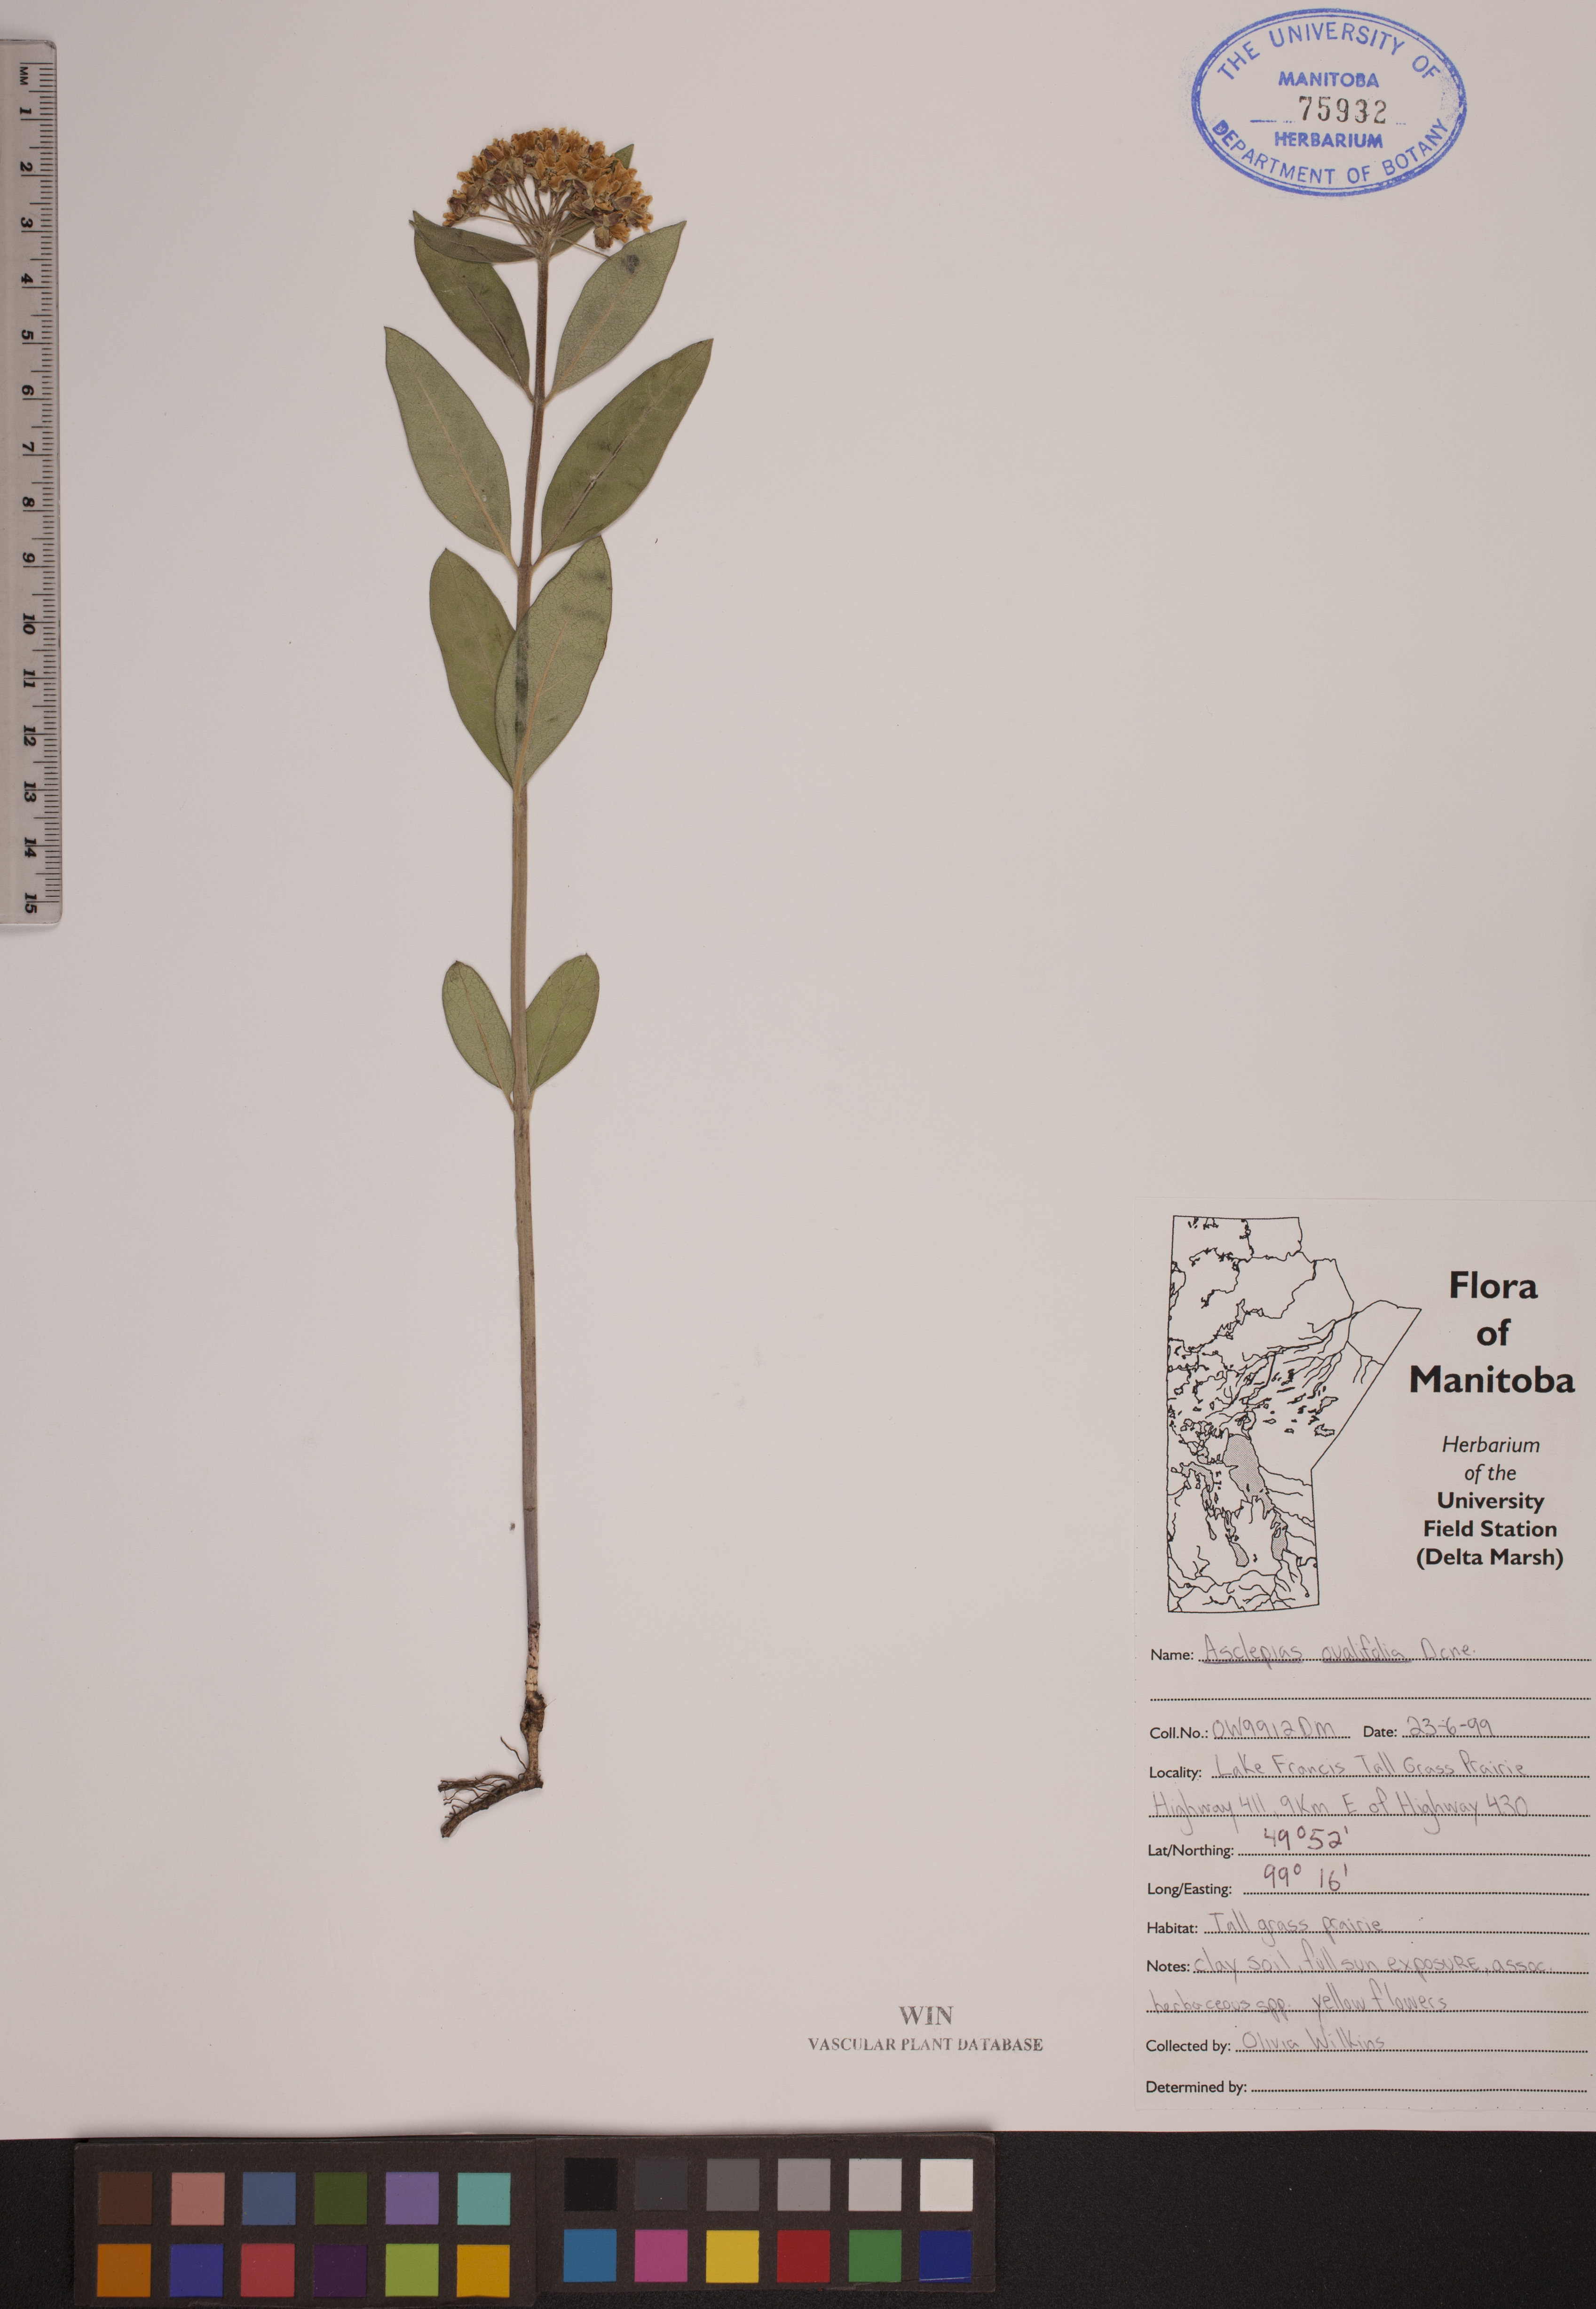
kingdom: Plantae
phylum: Tracheophyta
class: Magnoliopsida
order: Gentianales
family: Apocynaceae
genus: Asclepias
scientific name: Asclepias ovalifolia
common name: Dwarf milkweed
